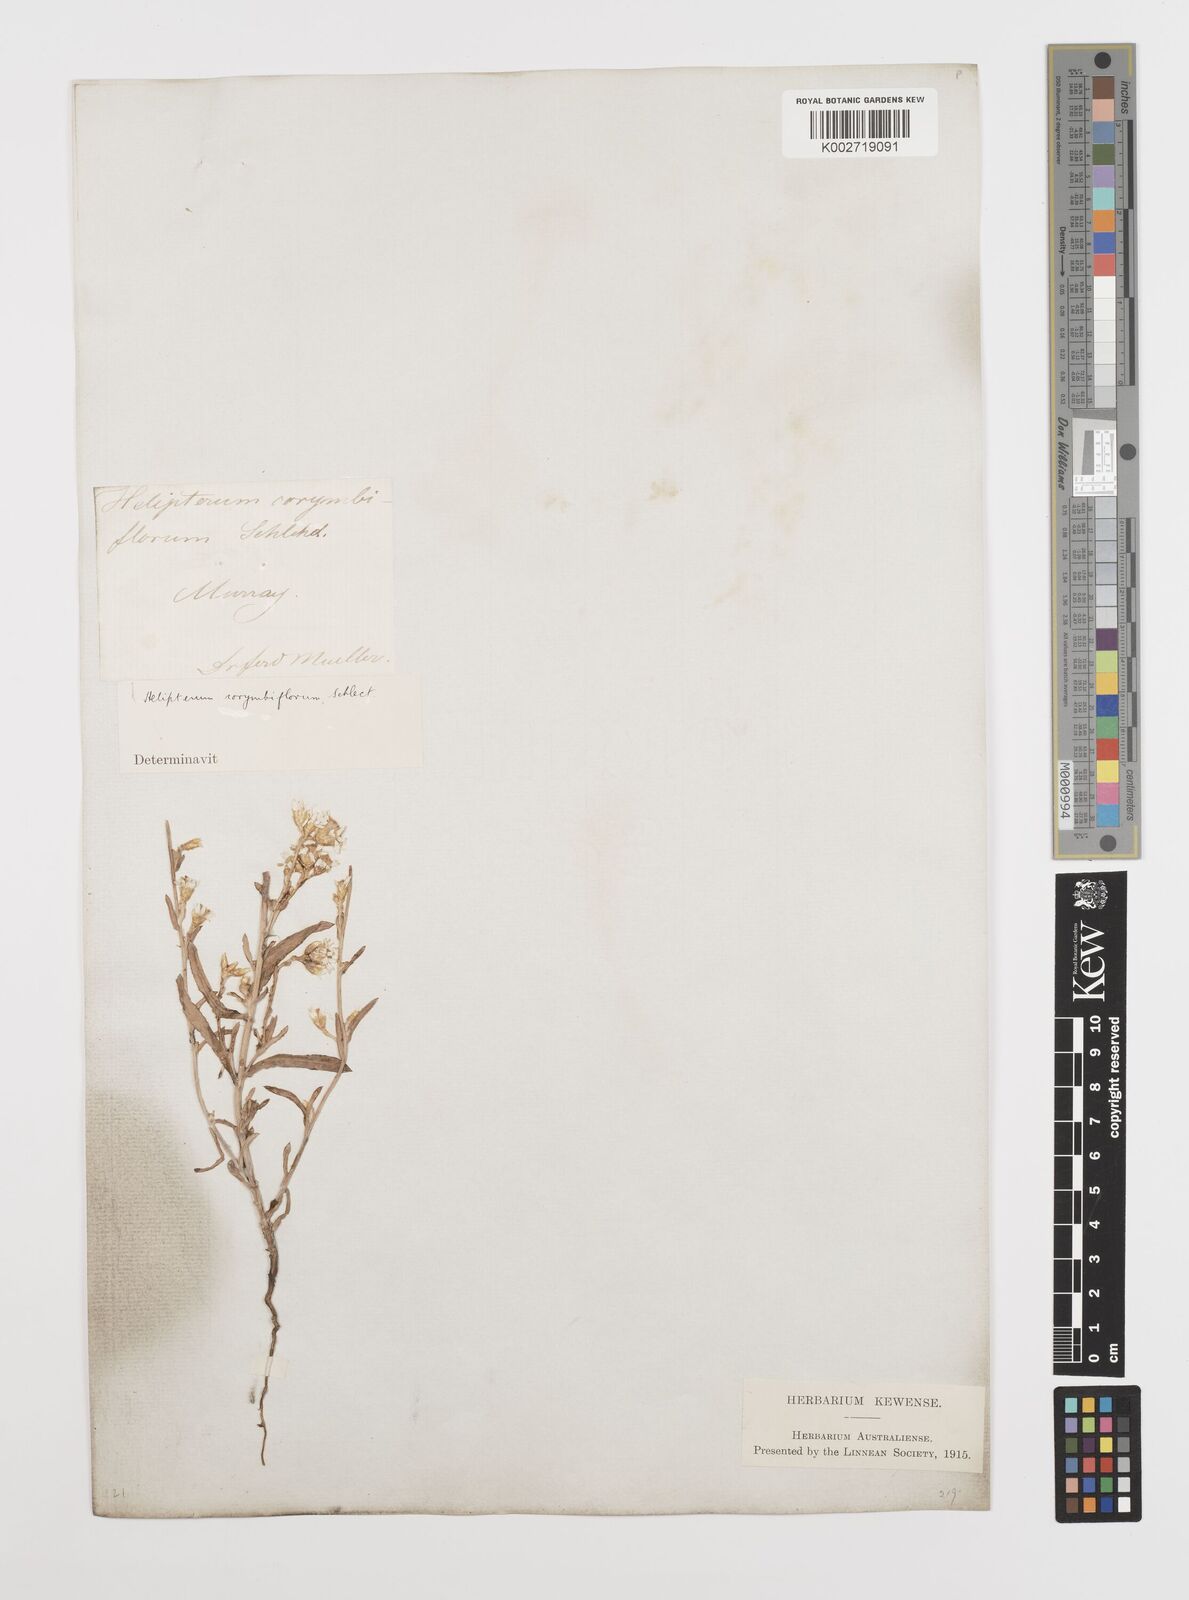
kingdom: Plantae
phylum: Tracheophyta
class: Magnoliopsida
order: Asterales
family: Asteraceae
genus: Rhodanthe
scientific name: Rhodanthe corymbiflora
